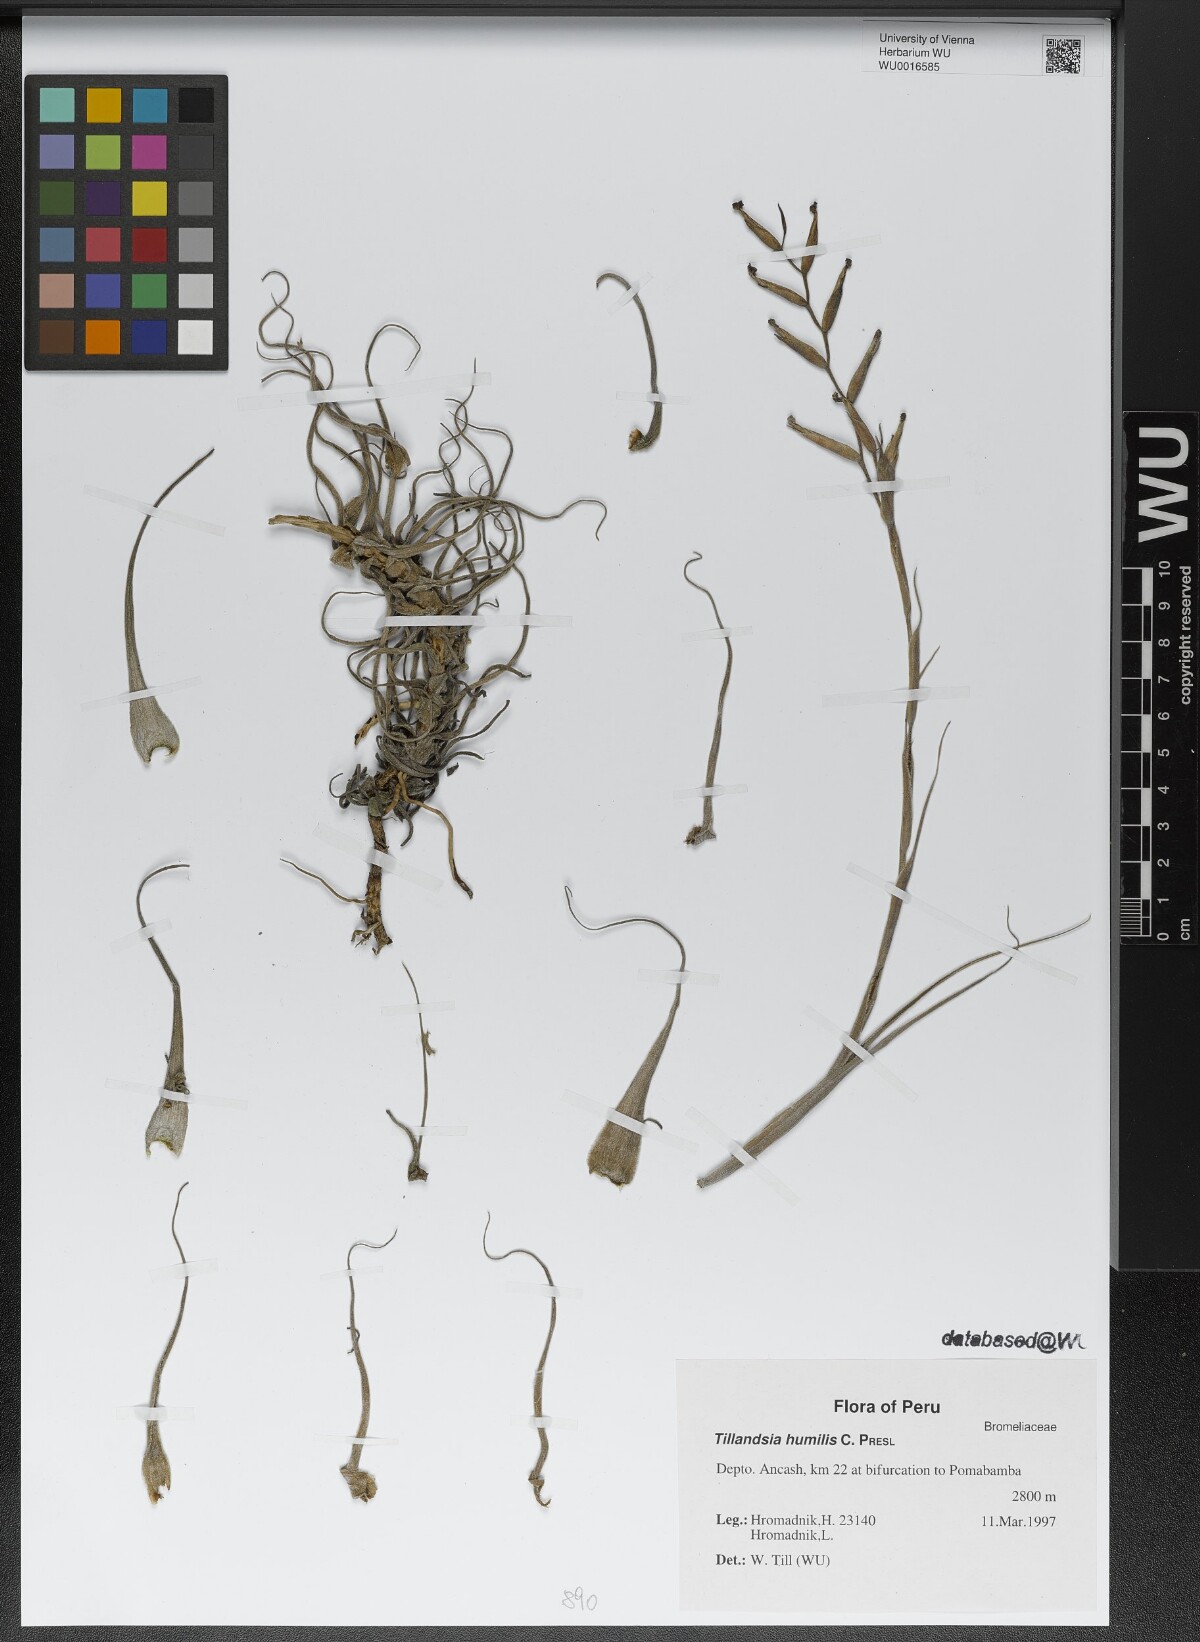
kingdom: Plantae
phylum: Tracheophyta
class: Liliopsida
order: Poales
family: Bromeliaceae
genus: Tillandsia
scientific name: Tillandsia humilis
